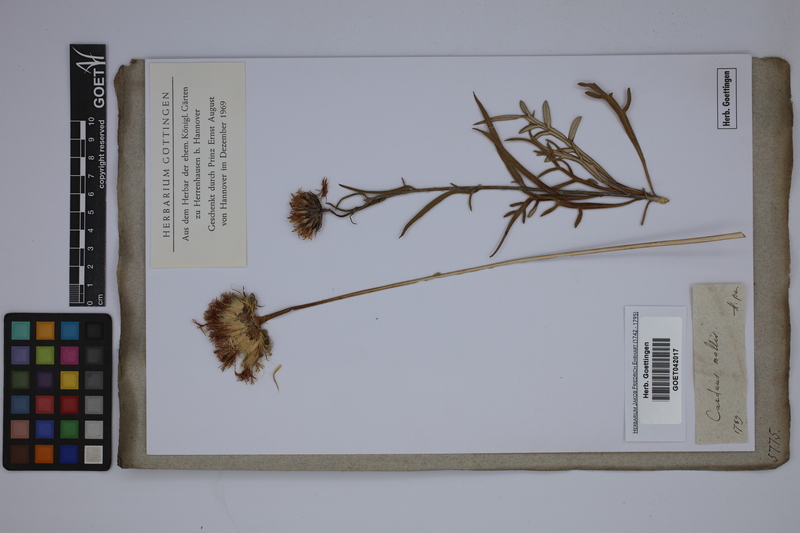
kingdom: Plantae
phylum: Tracheophyta
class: Magnoliopsida
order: Asterales
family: Asteraceae
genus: Jurinea
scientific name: Jurinea mollis
